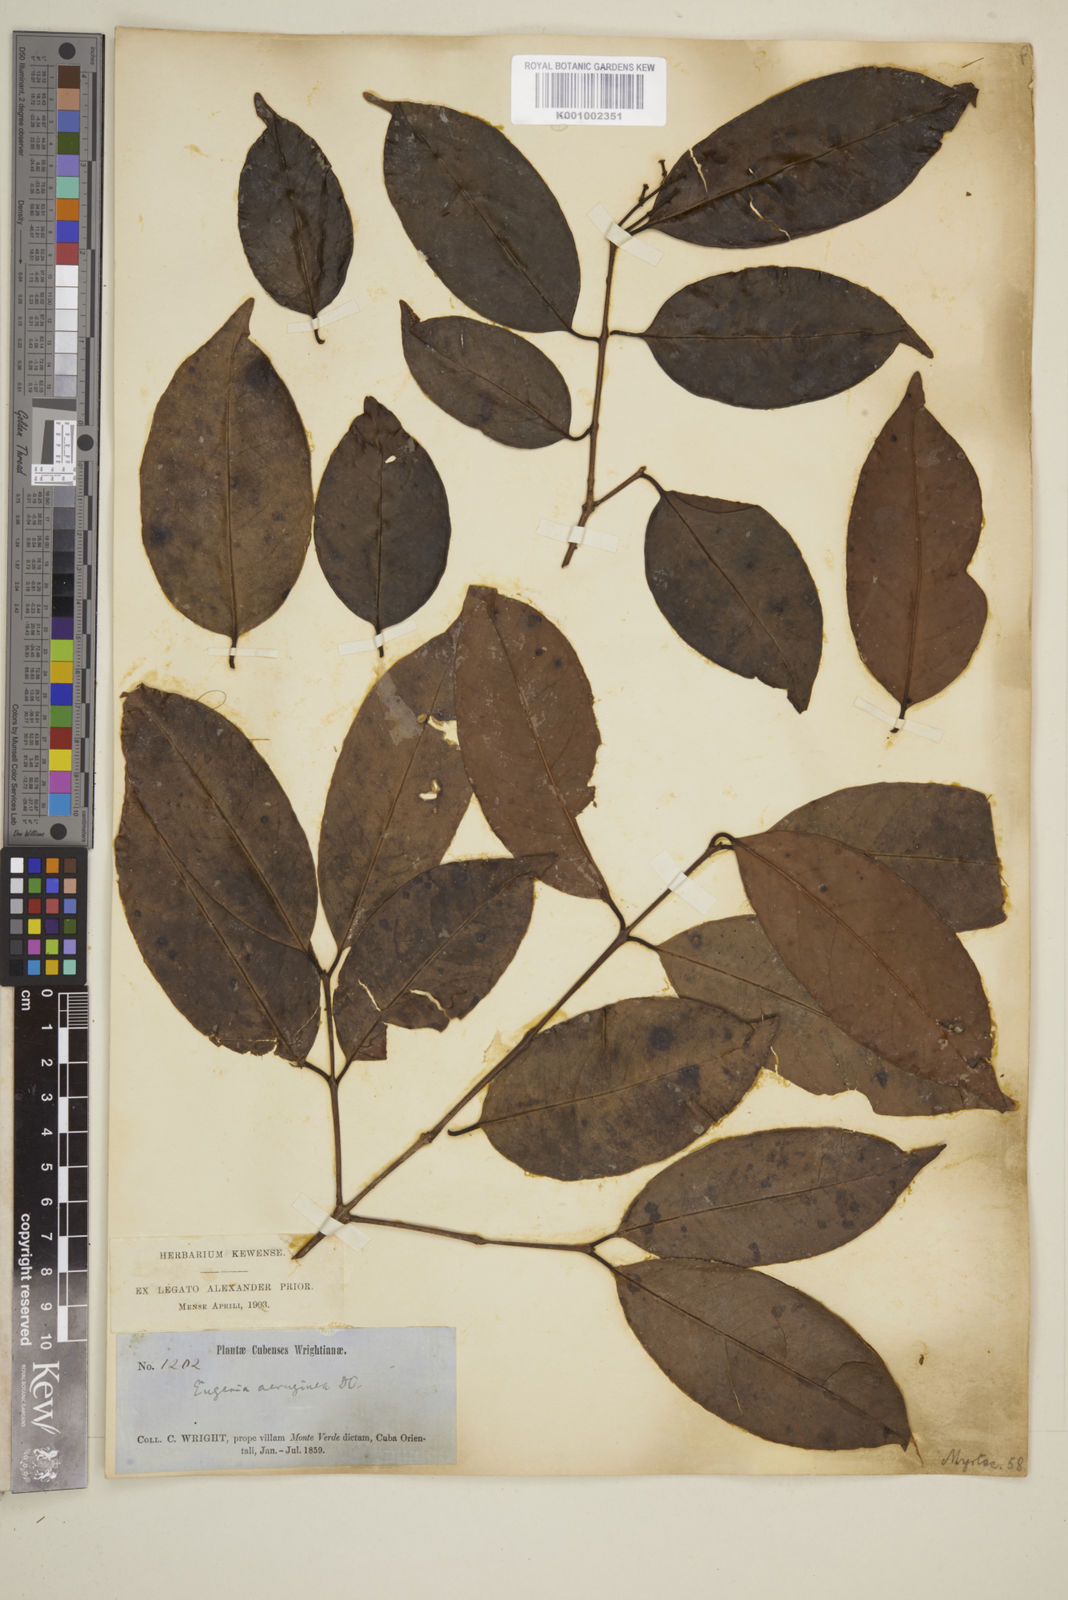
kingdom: Plantae
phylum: Tracheophyta
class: Magnoliopsida
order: Myrtales
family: Myrtaceae
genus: Eugenia
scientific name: Eugenia aeruginea
